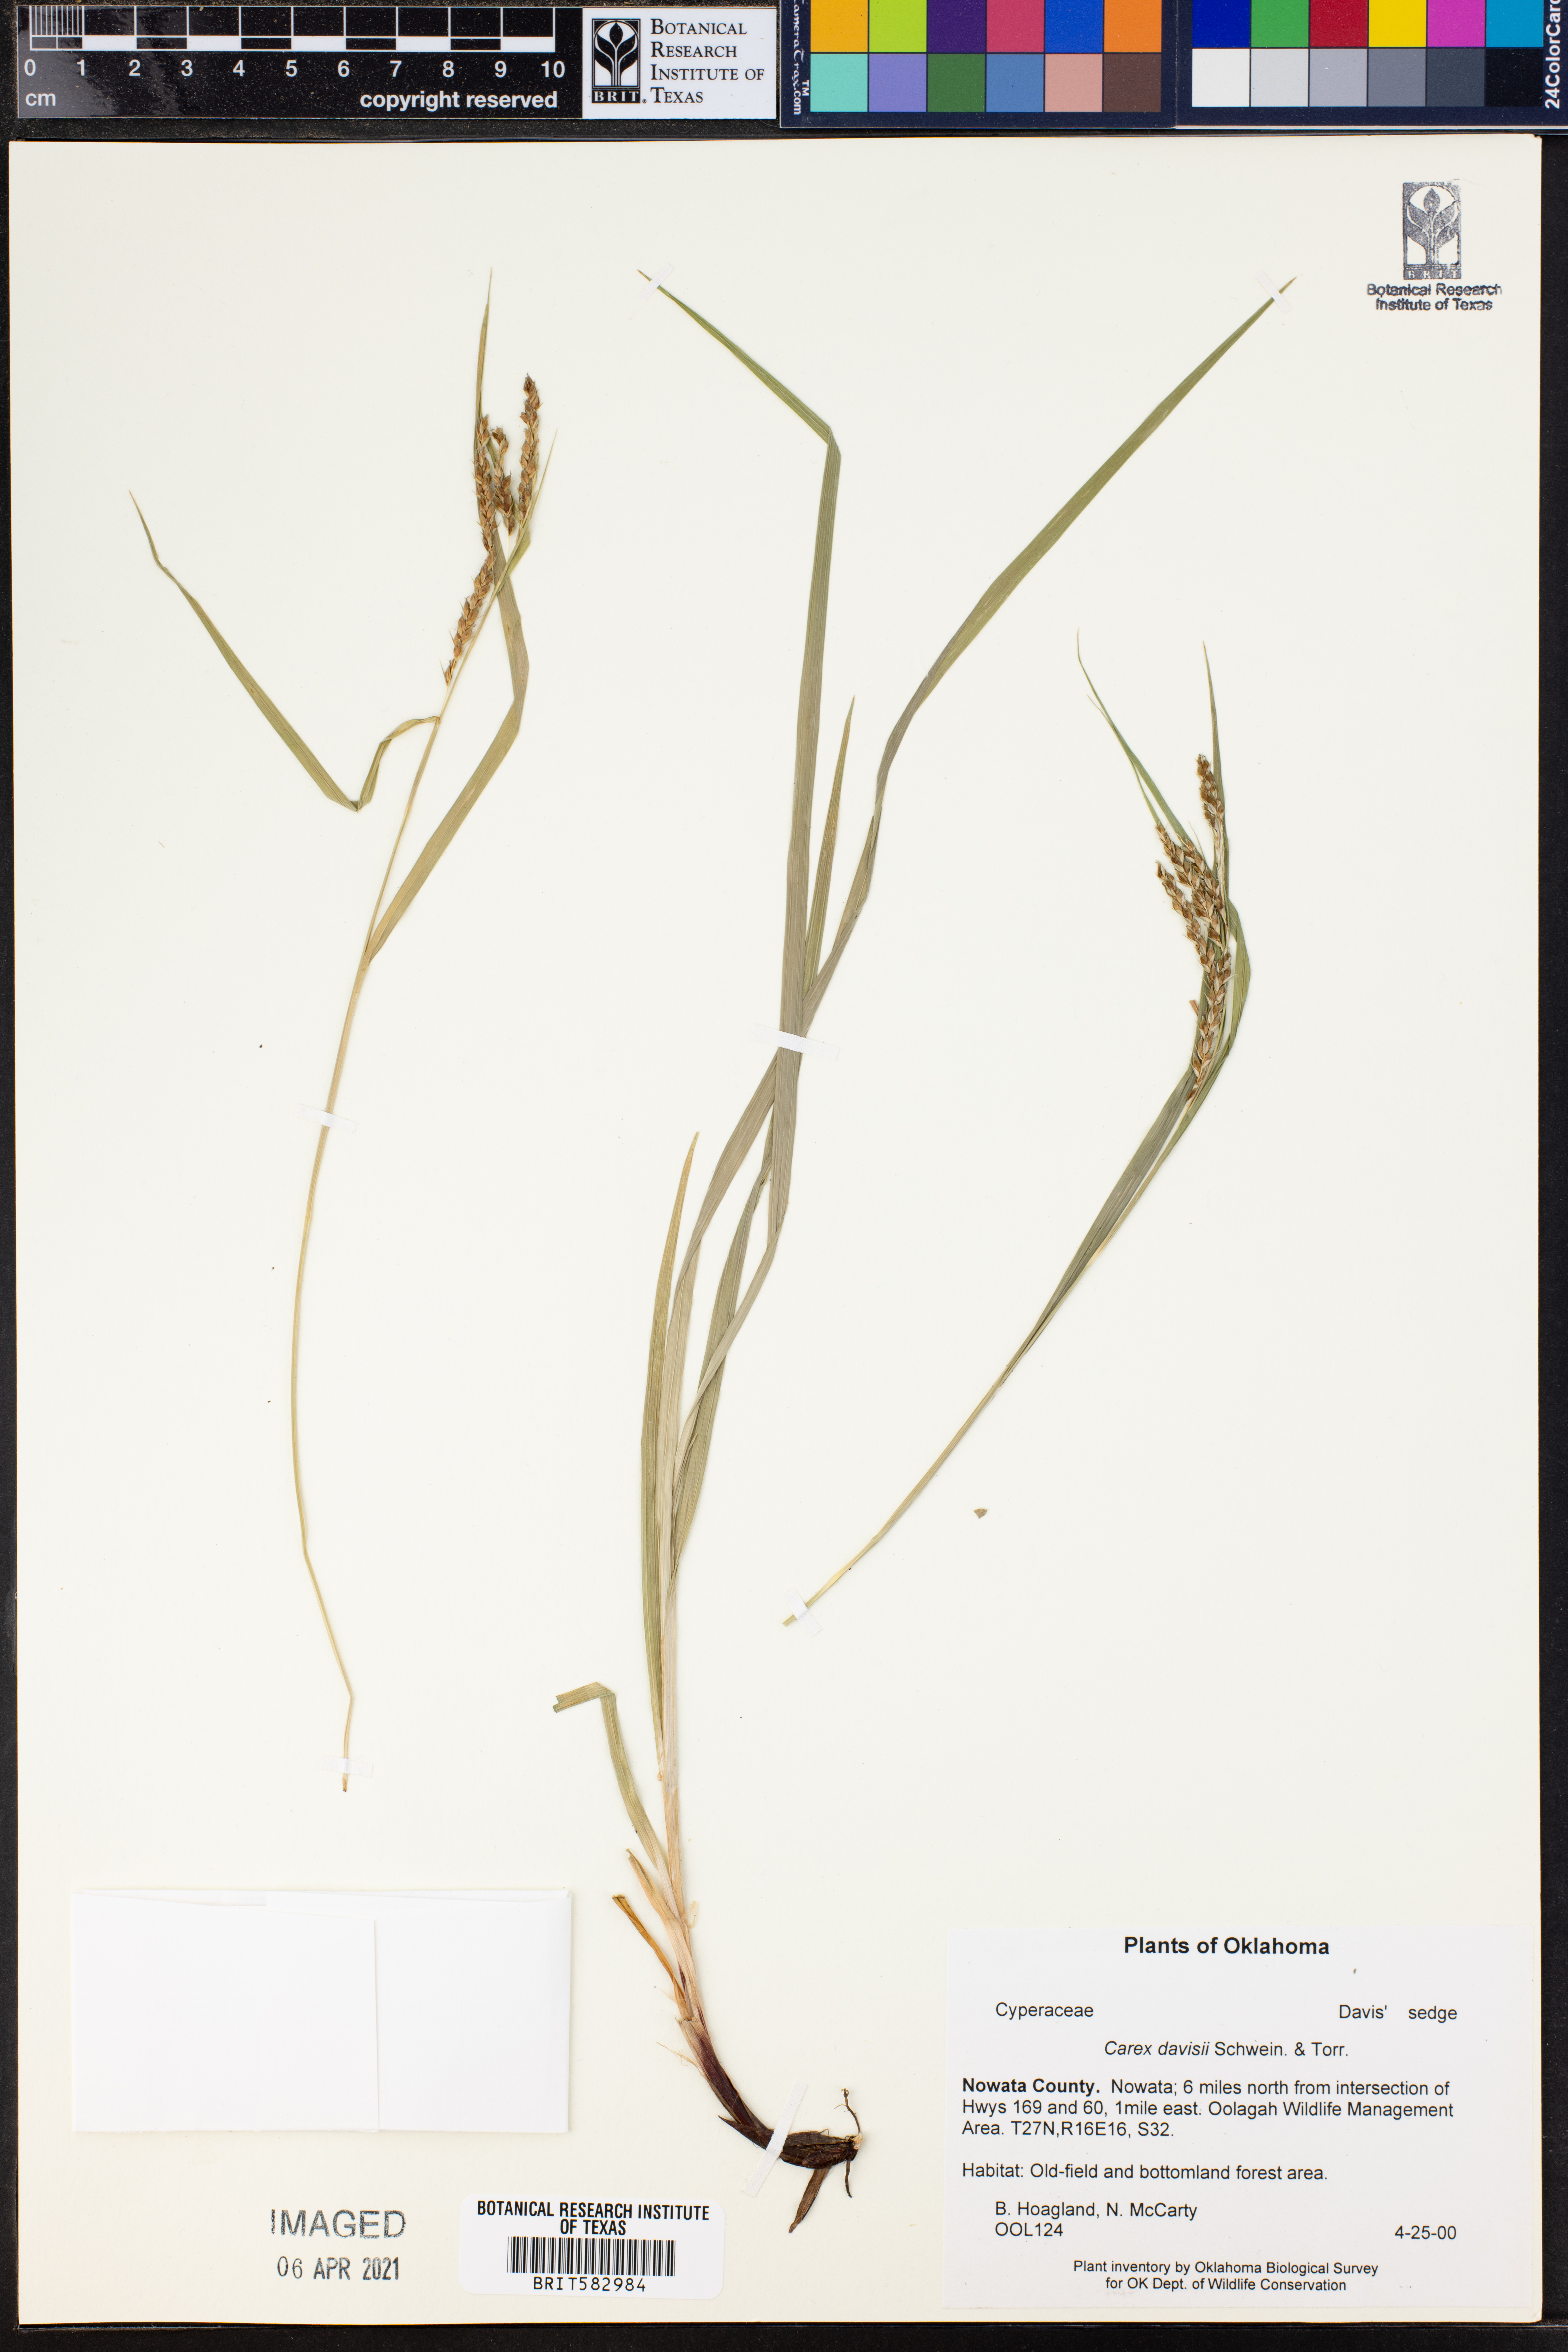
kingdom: Plantae
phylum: Tracheophyta
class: Liliopsida
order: Poales
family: Cyperaceae
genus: Carex
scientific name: Carex davisii
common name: Davis' sedge
